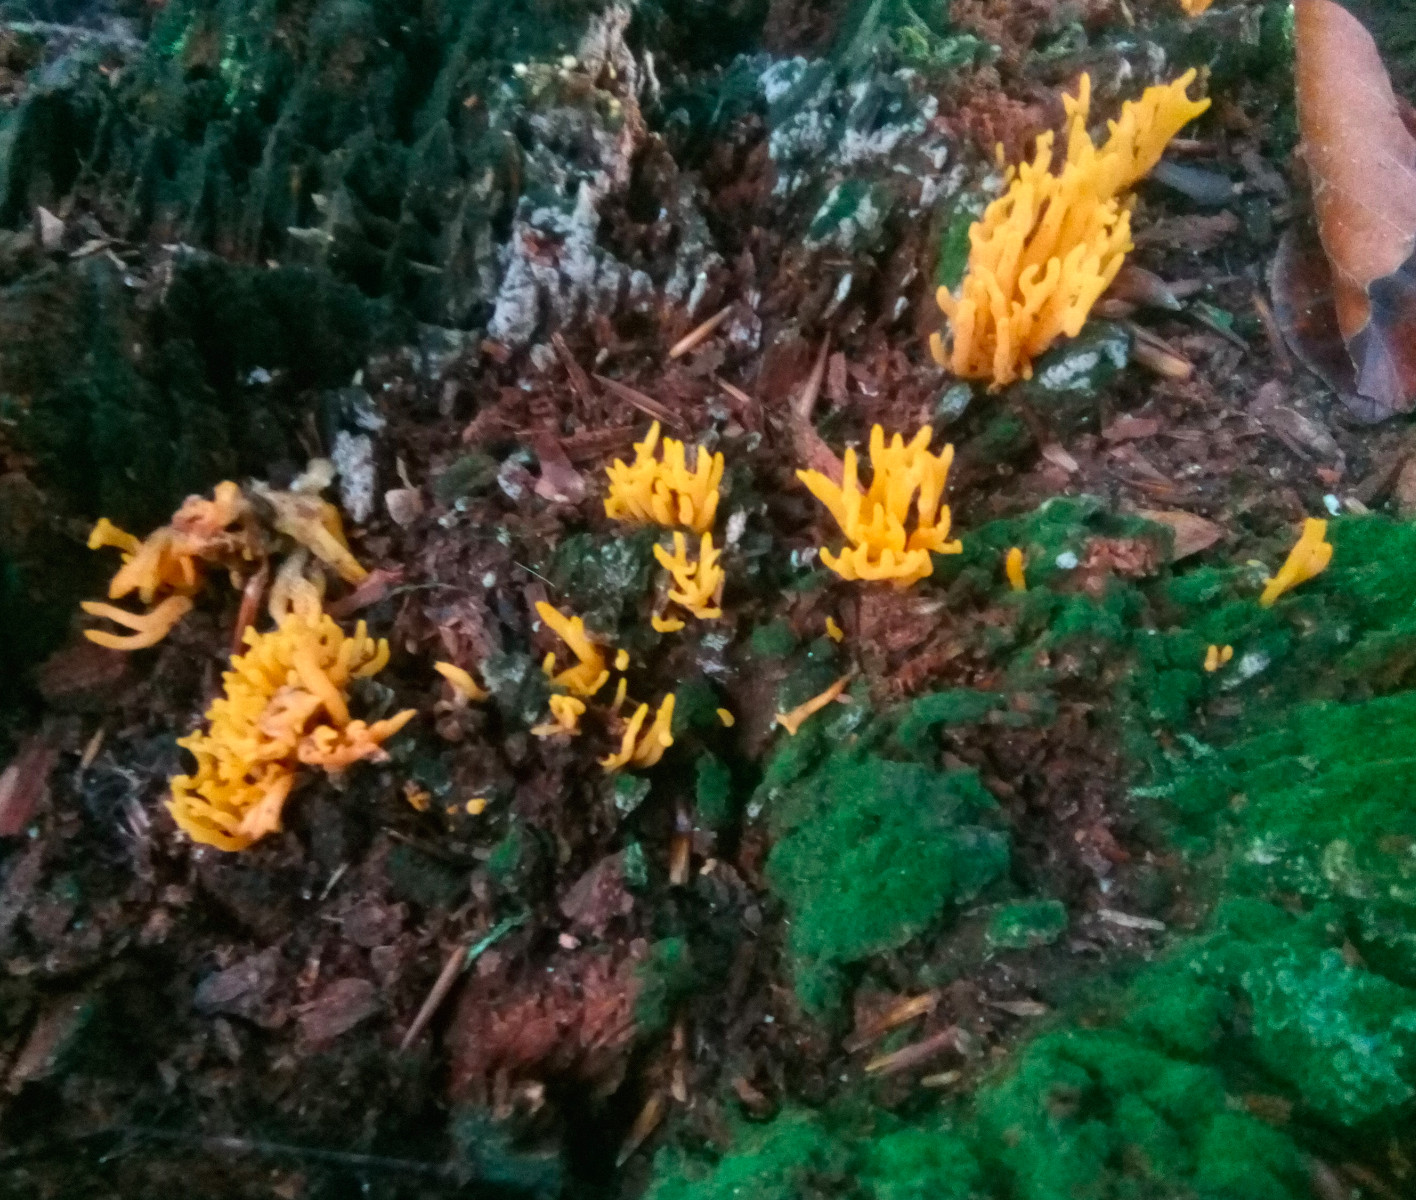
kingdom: Fungi
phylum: Basidiomycota
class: Dacrymycetes
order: Dacrymycetales
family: Dacrymycetaceae
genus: Calocera
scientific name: Calocera viscosa
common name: almindelig guldgaffel
